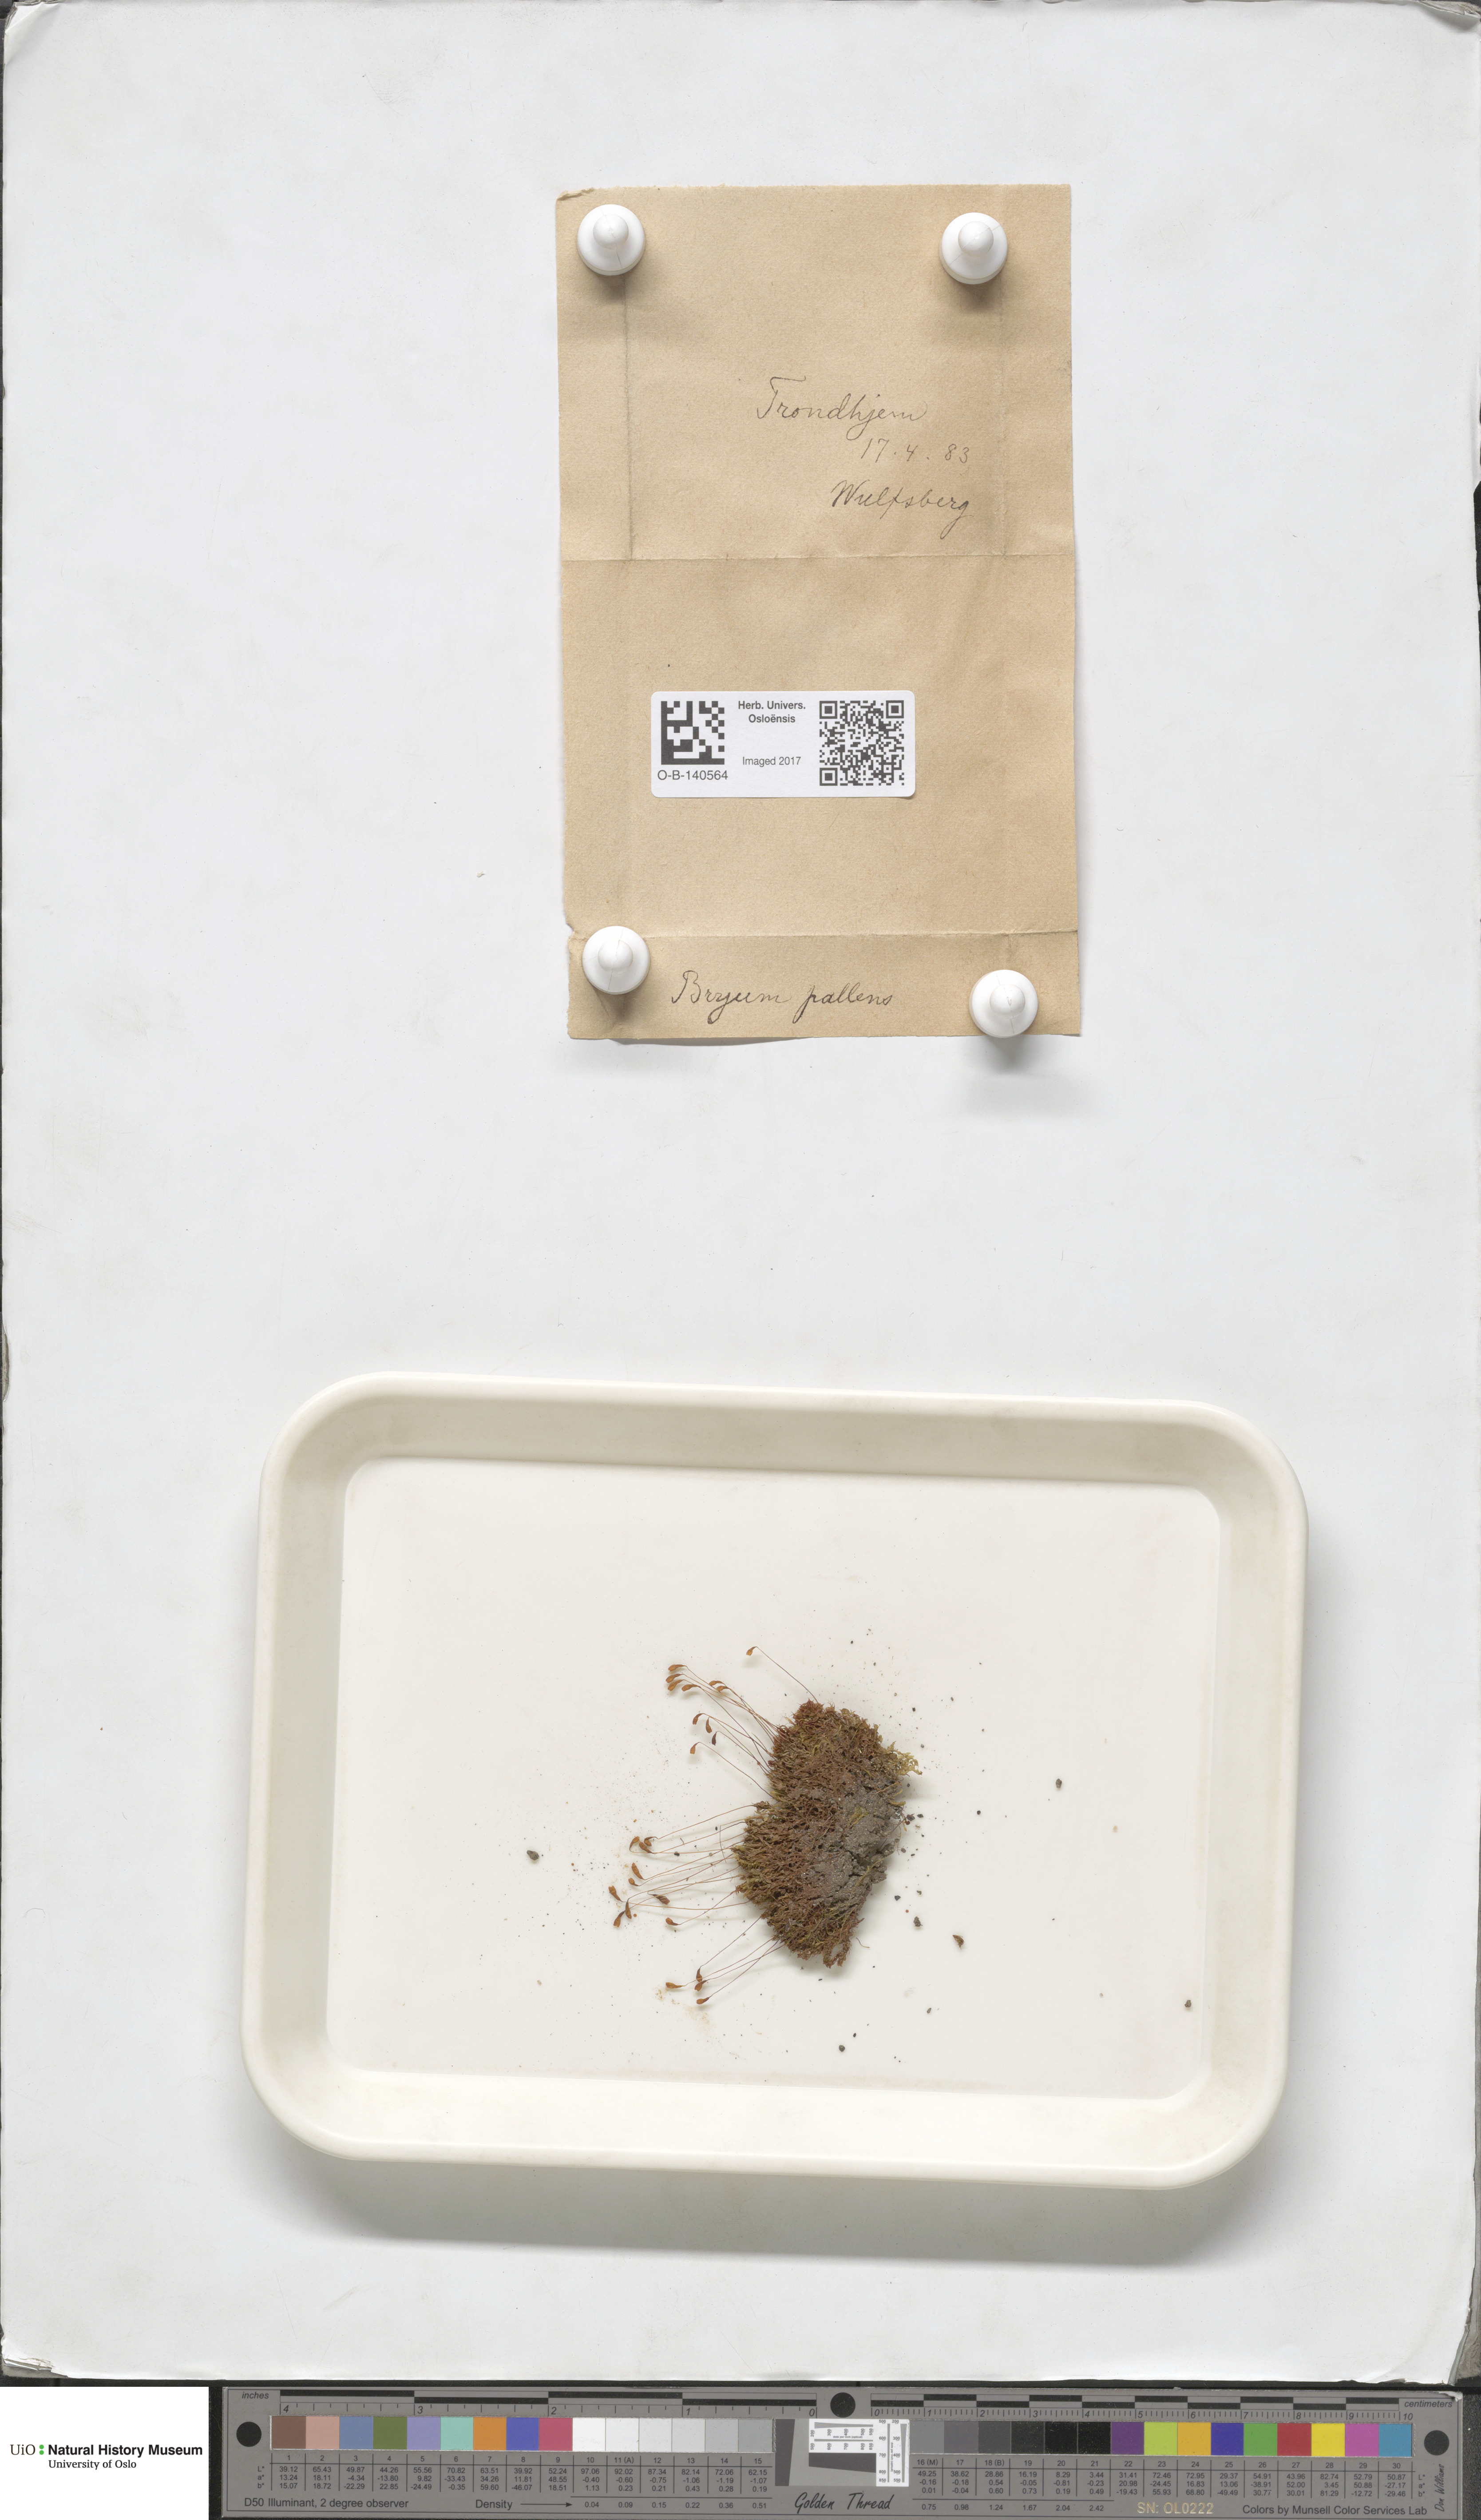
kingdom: Plantae
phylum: Bryophyta
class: Bryopsida
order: Bryales
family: Bryaceae
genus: Ptychostomum
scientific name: Ptychostomum pallens
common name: Pale thread-moss
